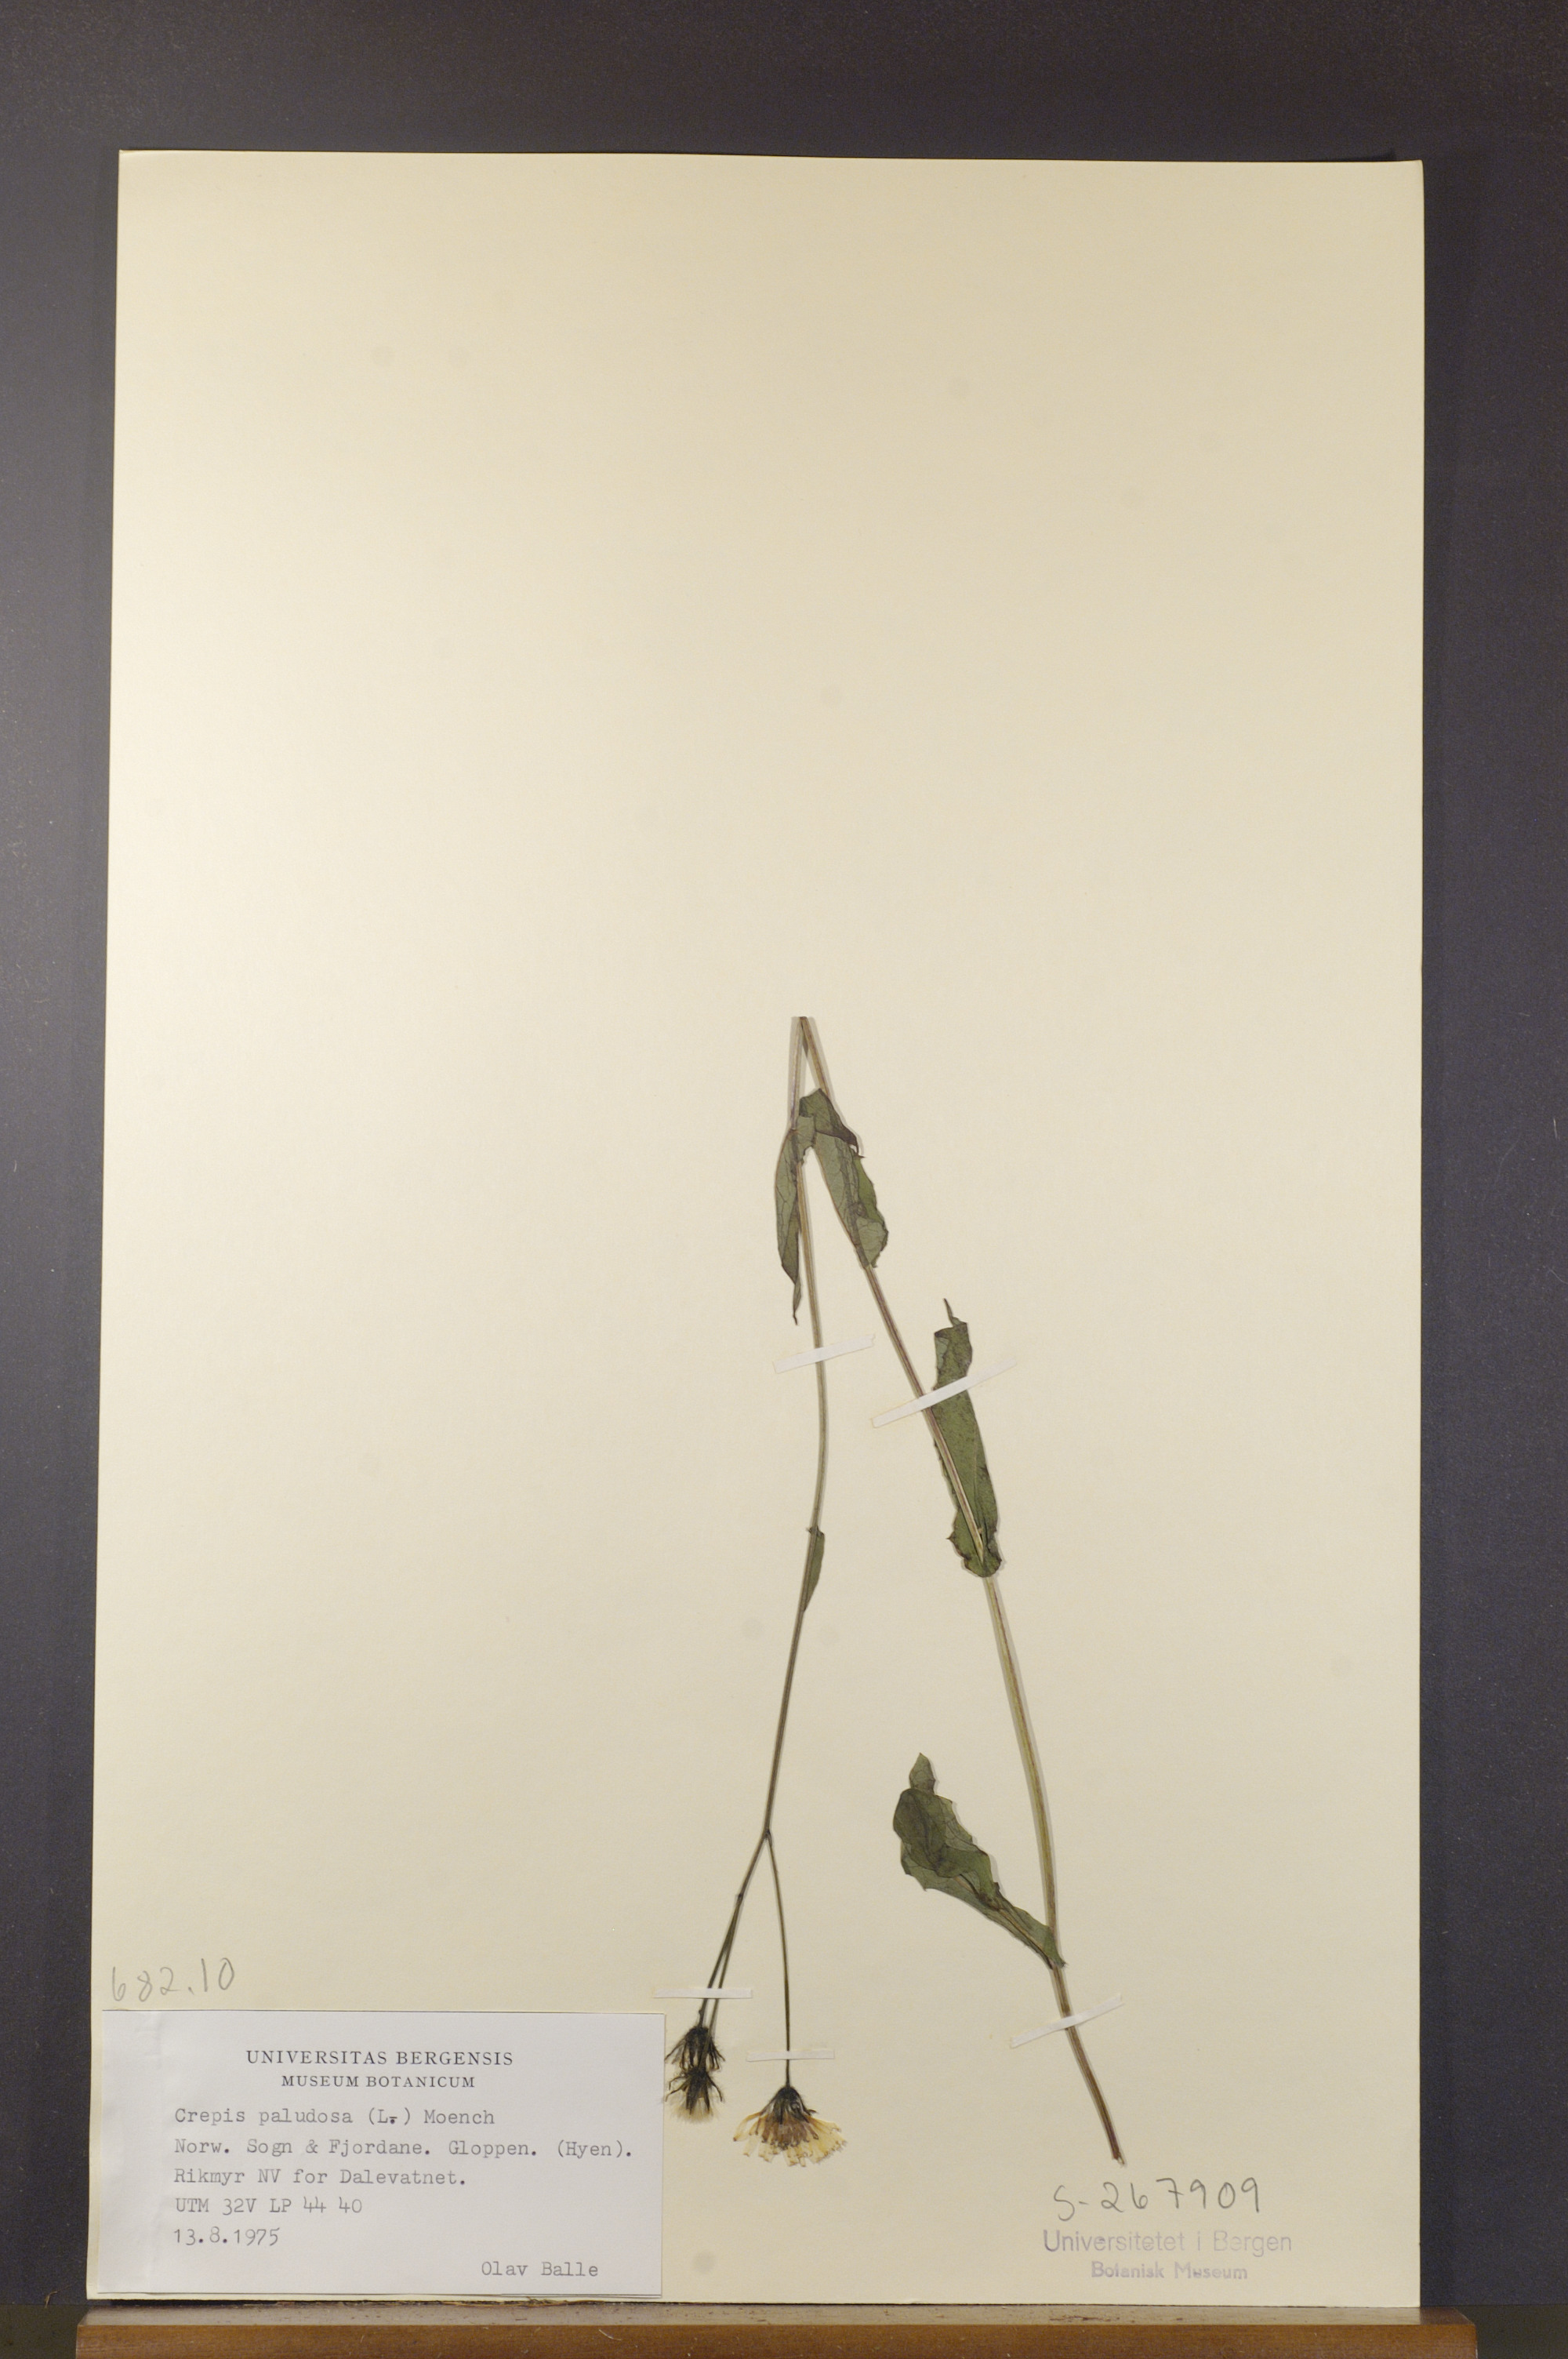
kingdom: Plantae
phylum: Tracheophyta
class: Magnoliopsida
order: Asterales
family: Asteraceae
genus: Crepis
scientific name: Crepis paludosa
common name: Marsh hawk's-beard
